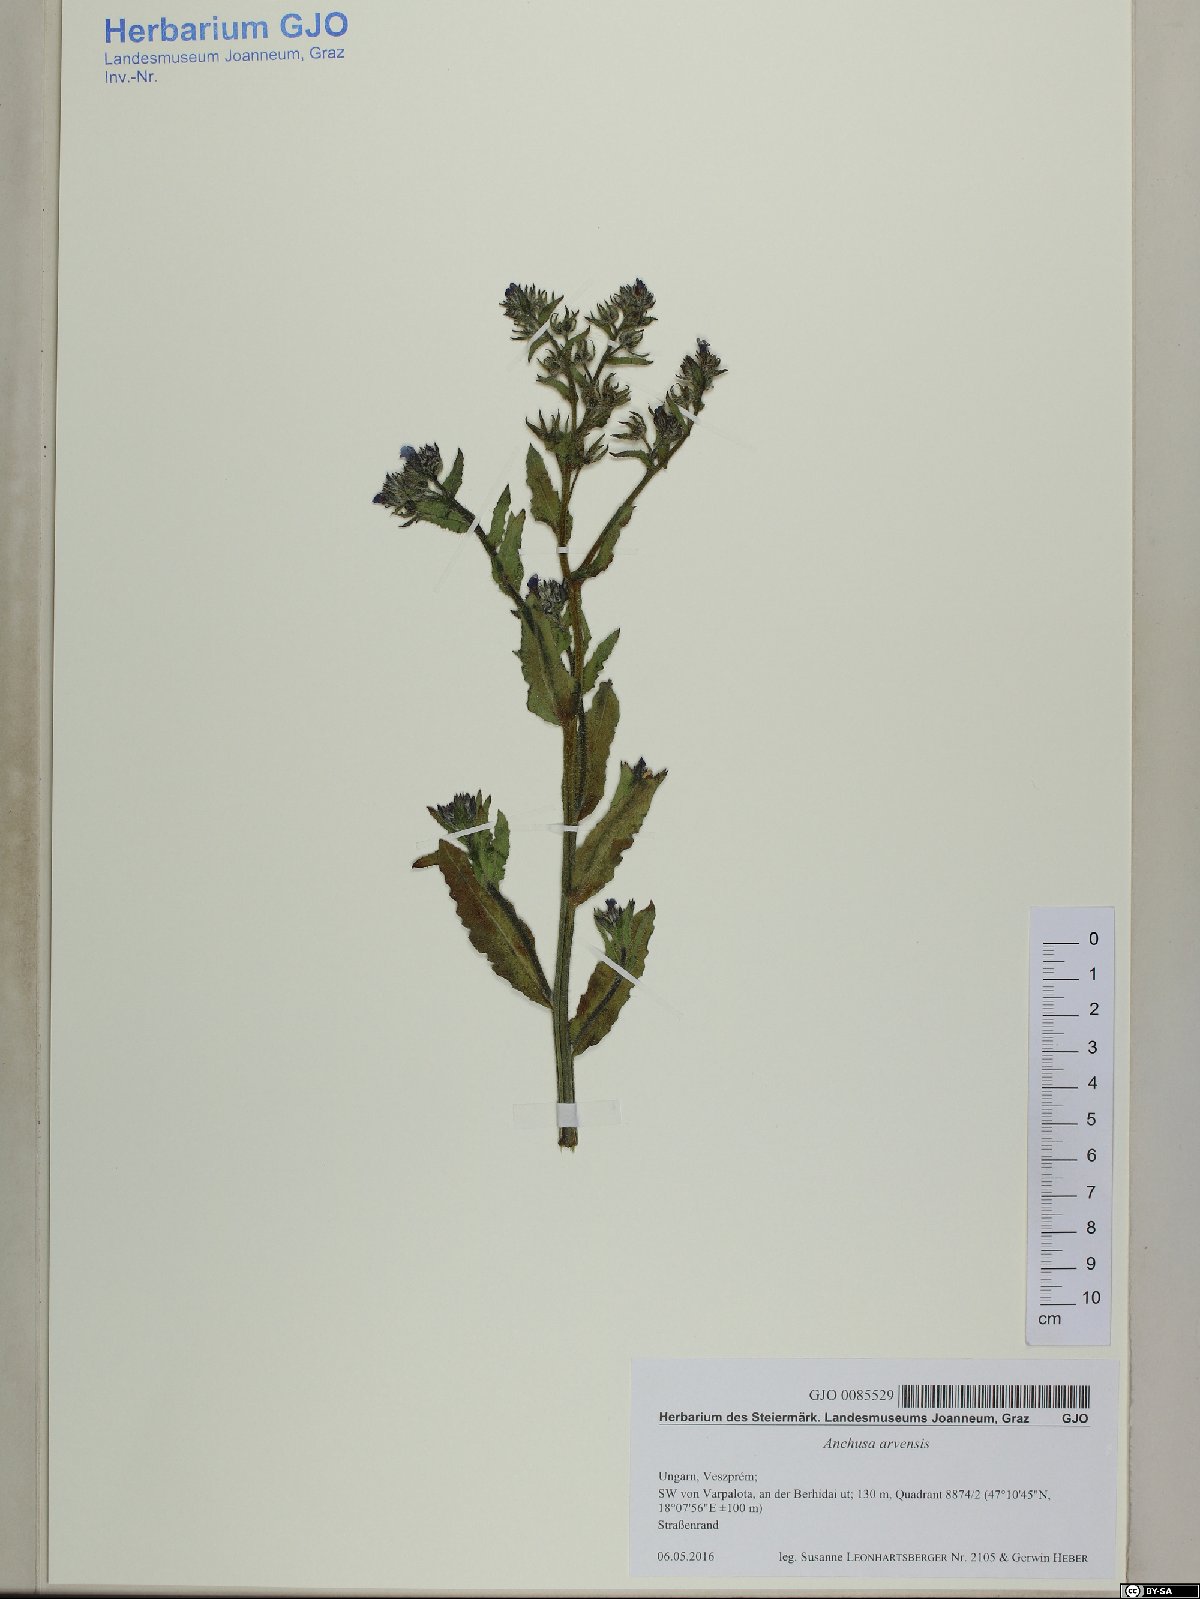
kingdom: Plantae
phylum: Tracheophyta
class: Magnoliopsida
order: Boraginales
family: Boraginaceae
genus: Lycopsis
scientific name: Lycopsis arvensis
